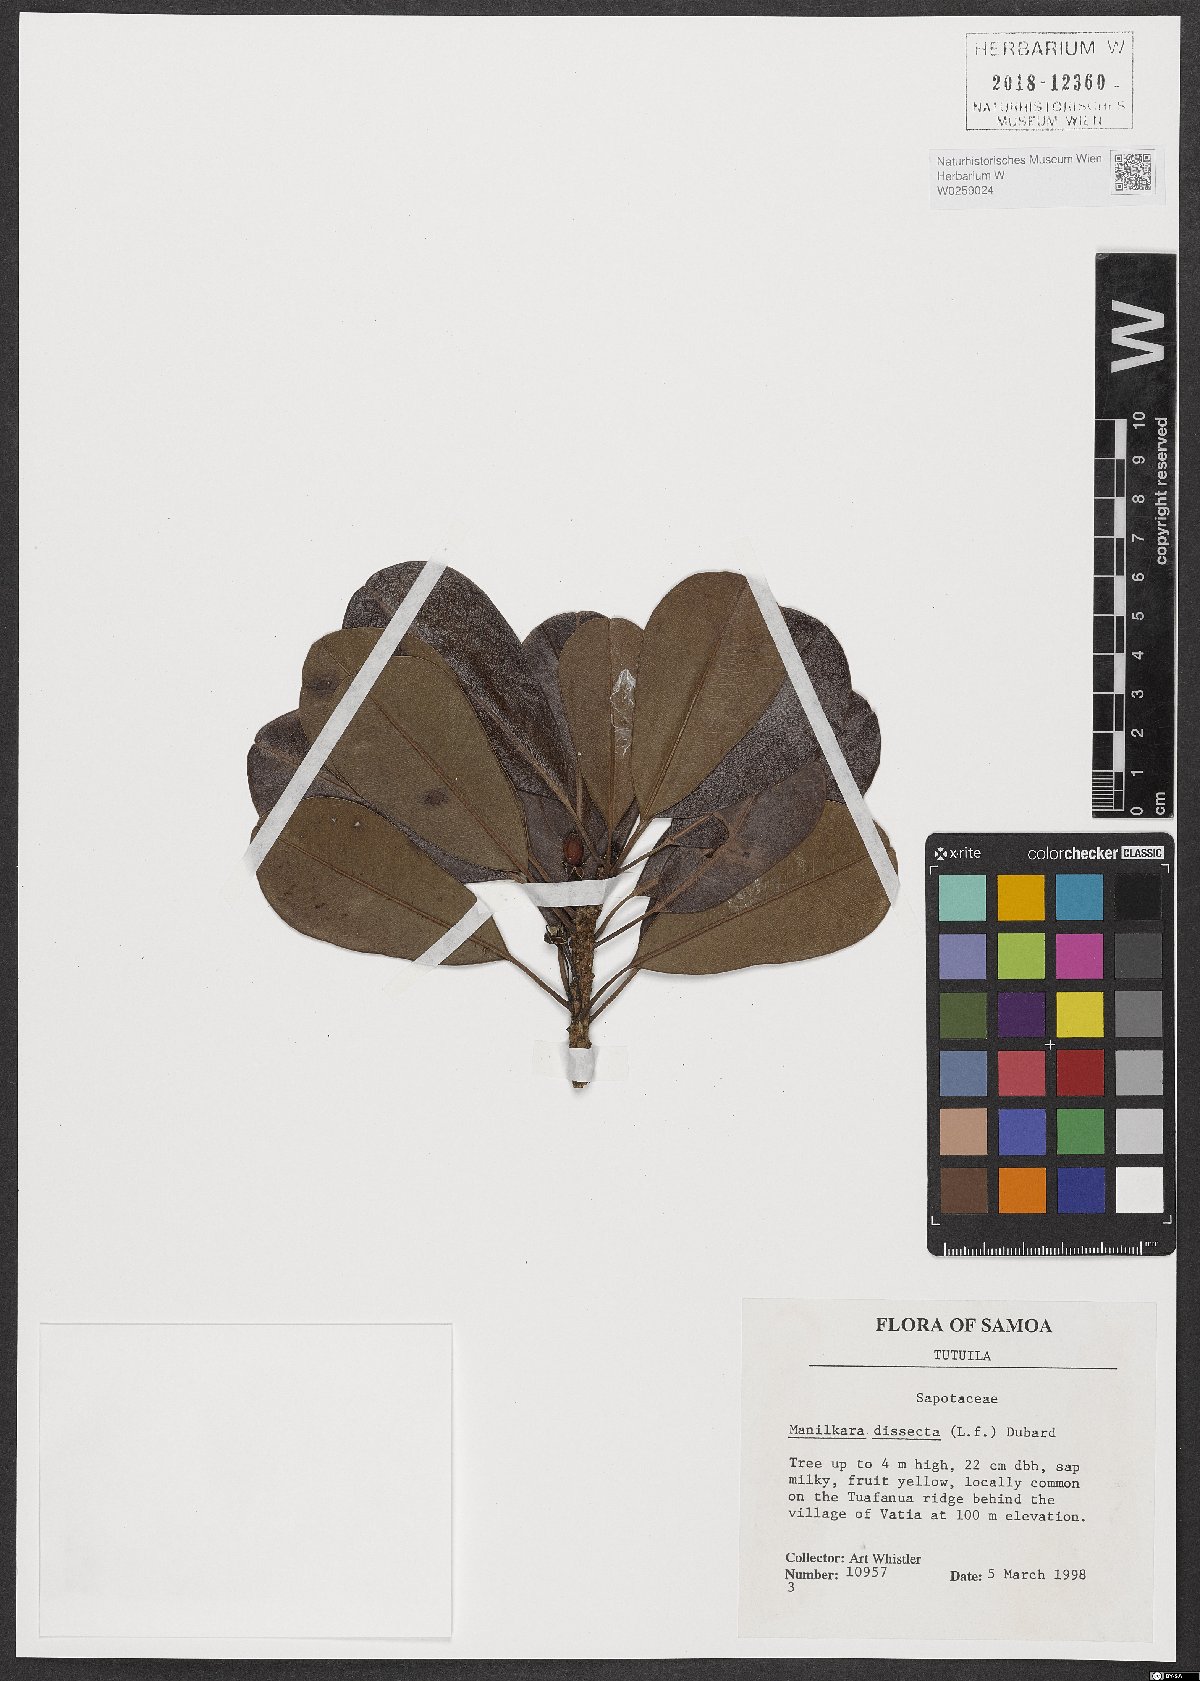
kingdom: Plantae
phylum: Tracheophyta
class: Magnoliopsida
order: Ericales
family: Sapotaceae
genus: Manilkara
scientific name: Manilkara dissecta
